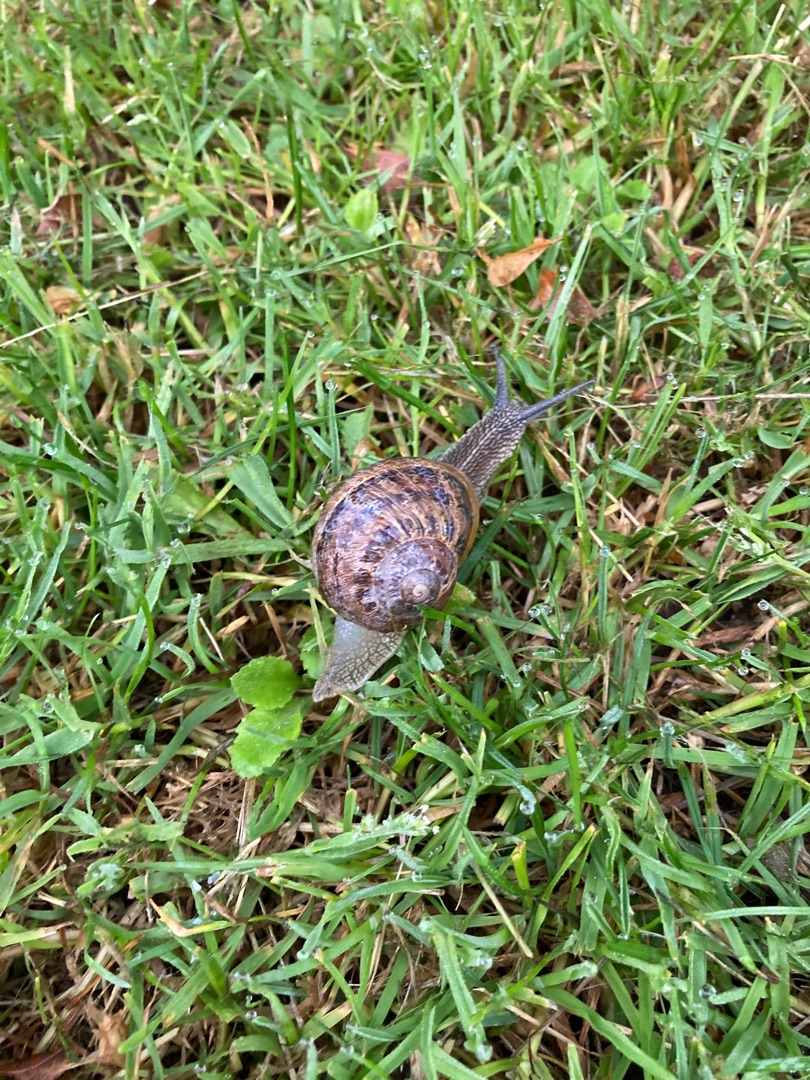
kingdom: Animalia
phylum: Mollusca
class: Gastropoda
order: Stylommatophora
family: Helicidae
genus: Cornu
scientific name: Cornu aspersum
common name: Plettet voldsnegl
